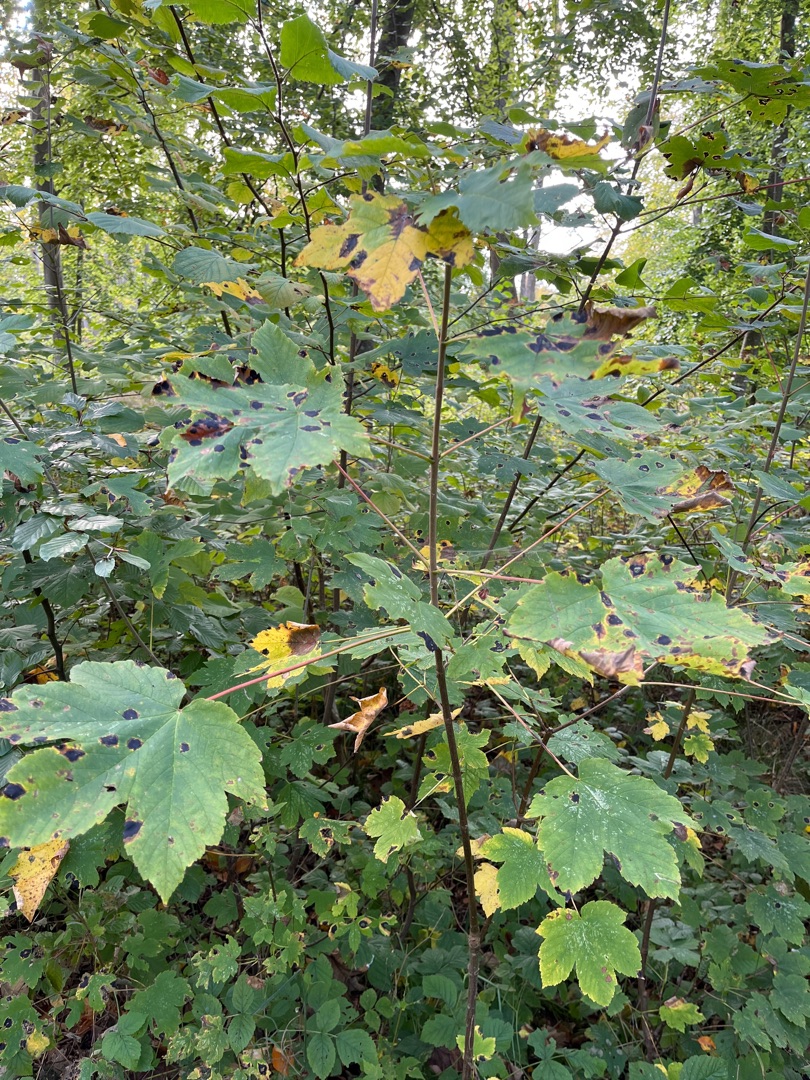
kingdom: Plantae
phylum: Tracheophyta
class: Magnoliopsida
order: Sapindales
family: Sapindaceae
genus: Acer
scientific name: Acer pseudoplatanus
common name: Ahorn
